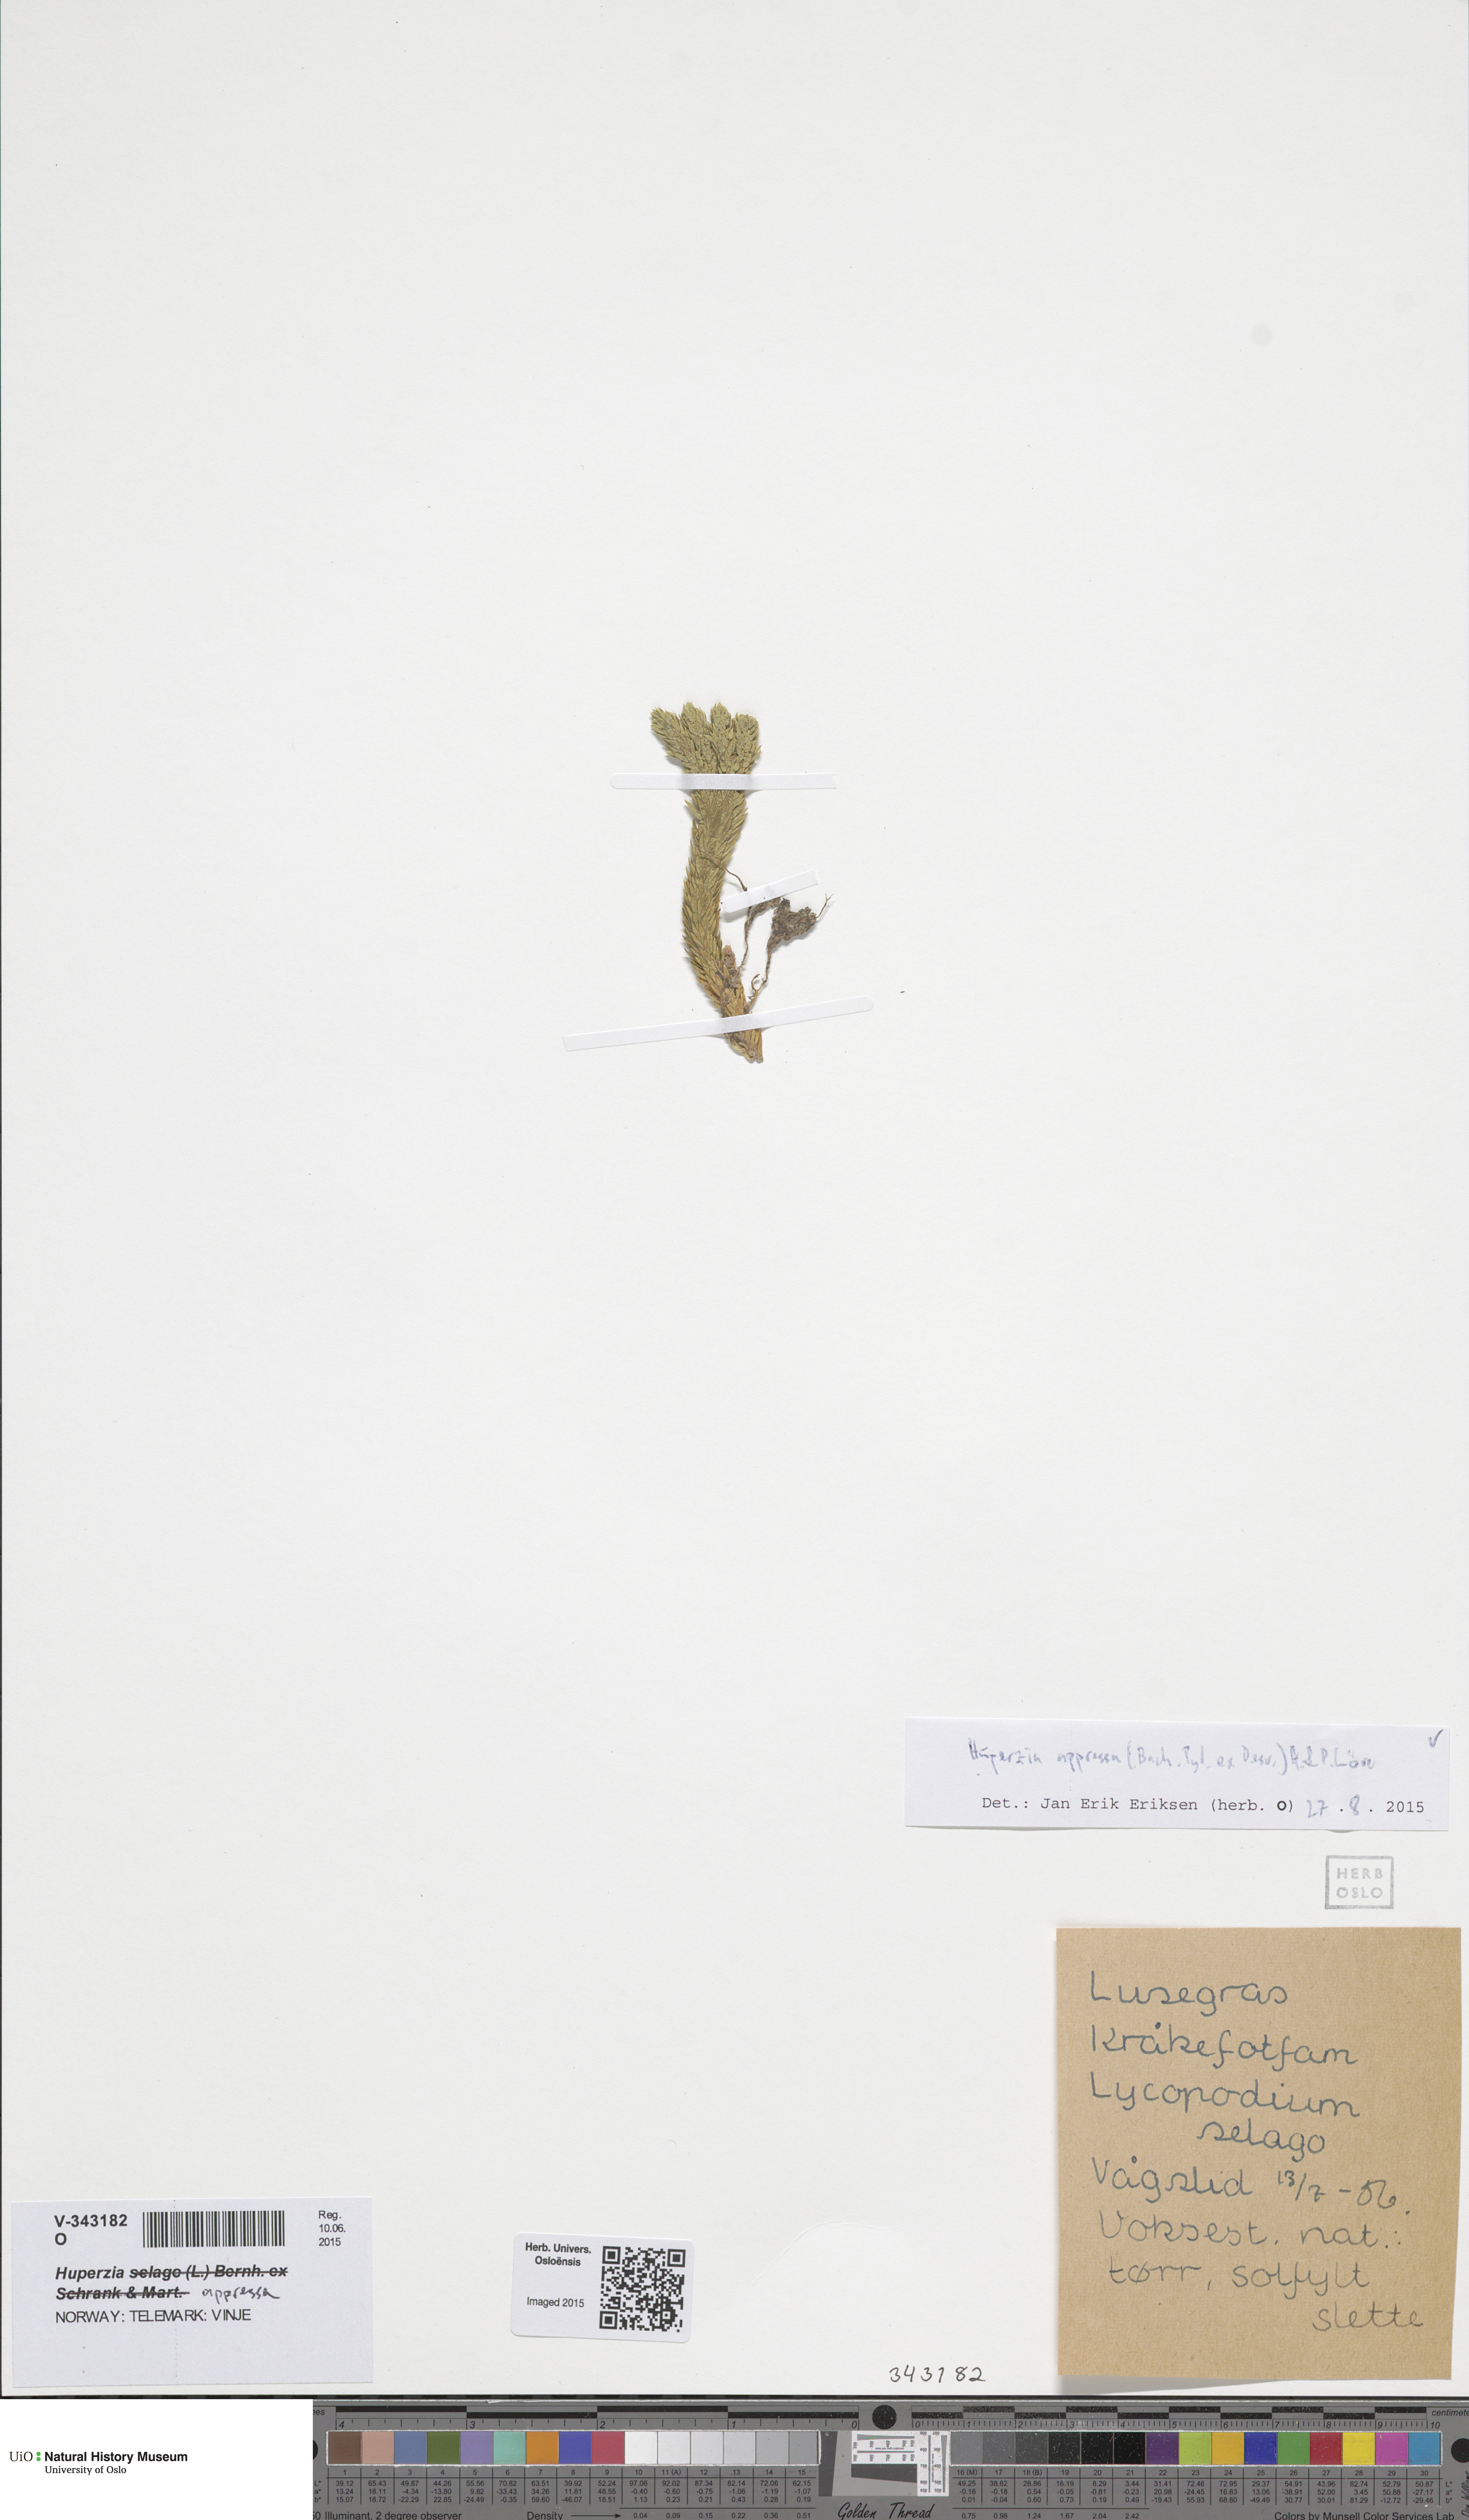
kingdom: Plantae
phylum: Tracheophyta
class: Lycopodiopsida
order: Lycopodiales
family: Lycopodiaceae
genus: Huperzia
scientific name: Huperzia selago
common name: Northern firmoss
